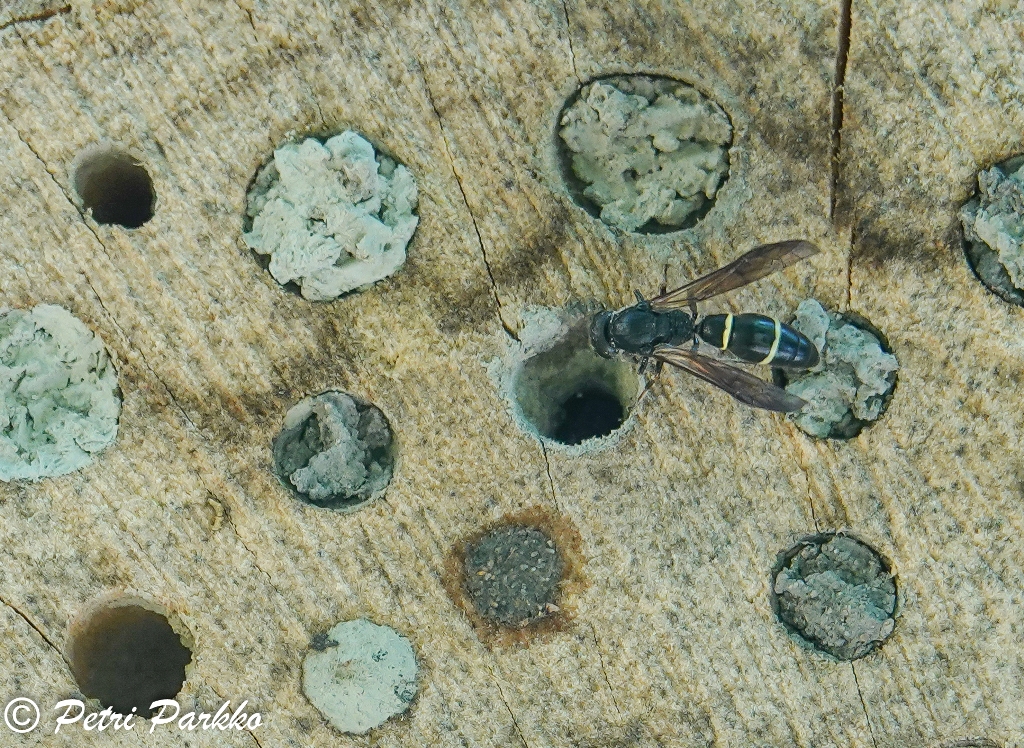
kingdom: Animalia
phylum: Arthropoda
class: Insecta
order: Hymenoptera
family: Eumenidae
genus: Symmorphus
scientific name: Symmorphus allobrogus
